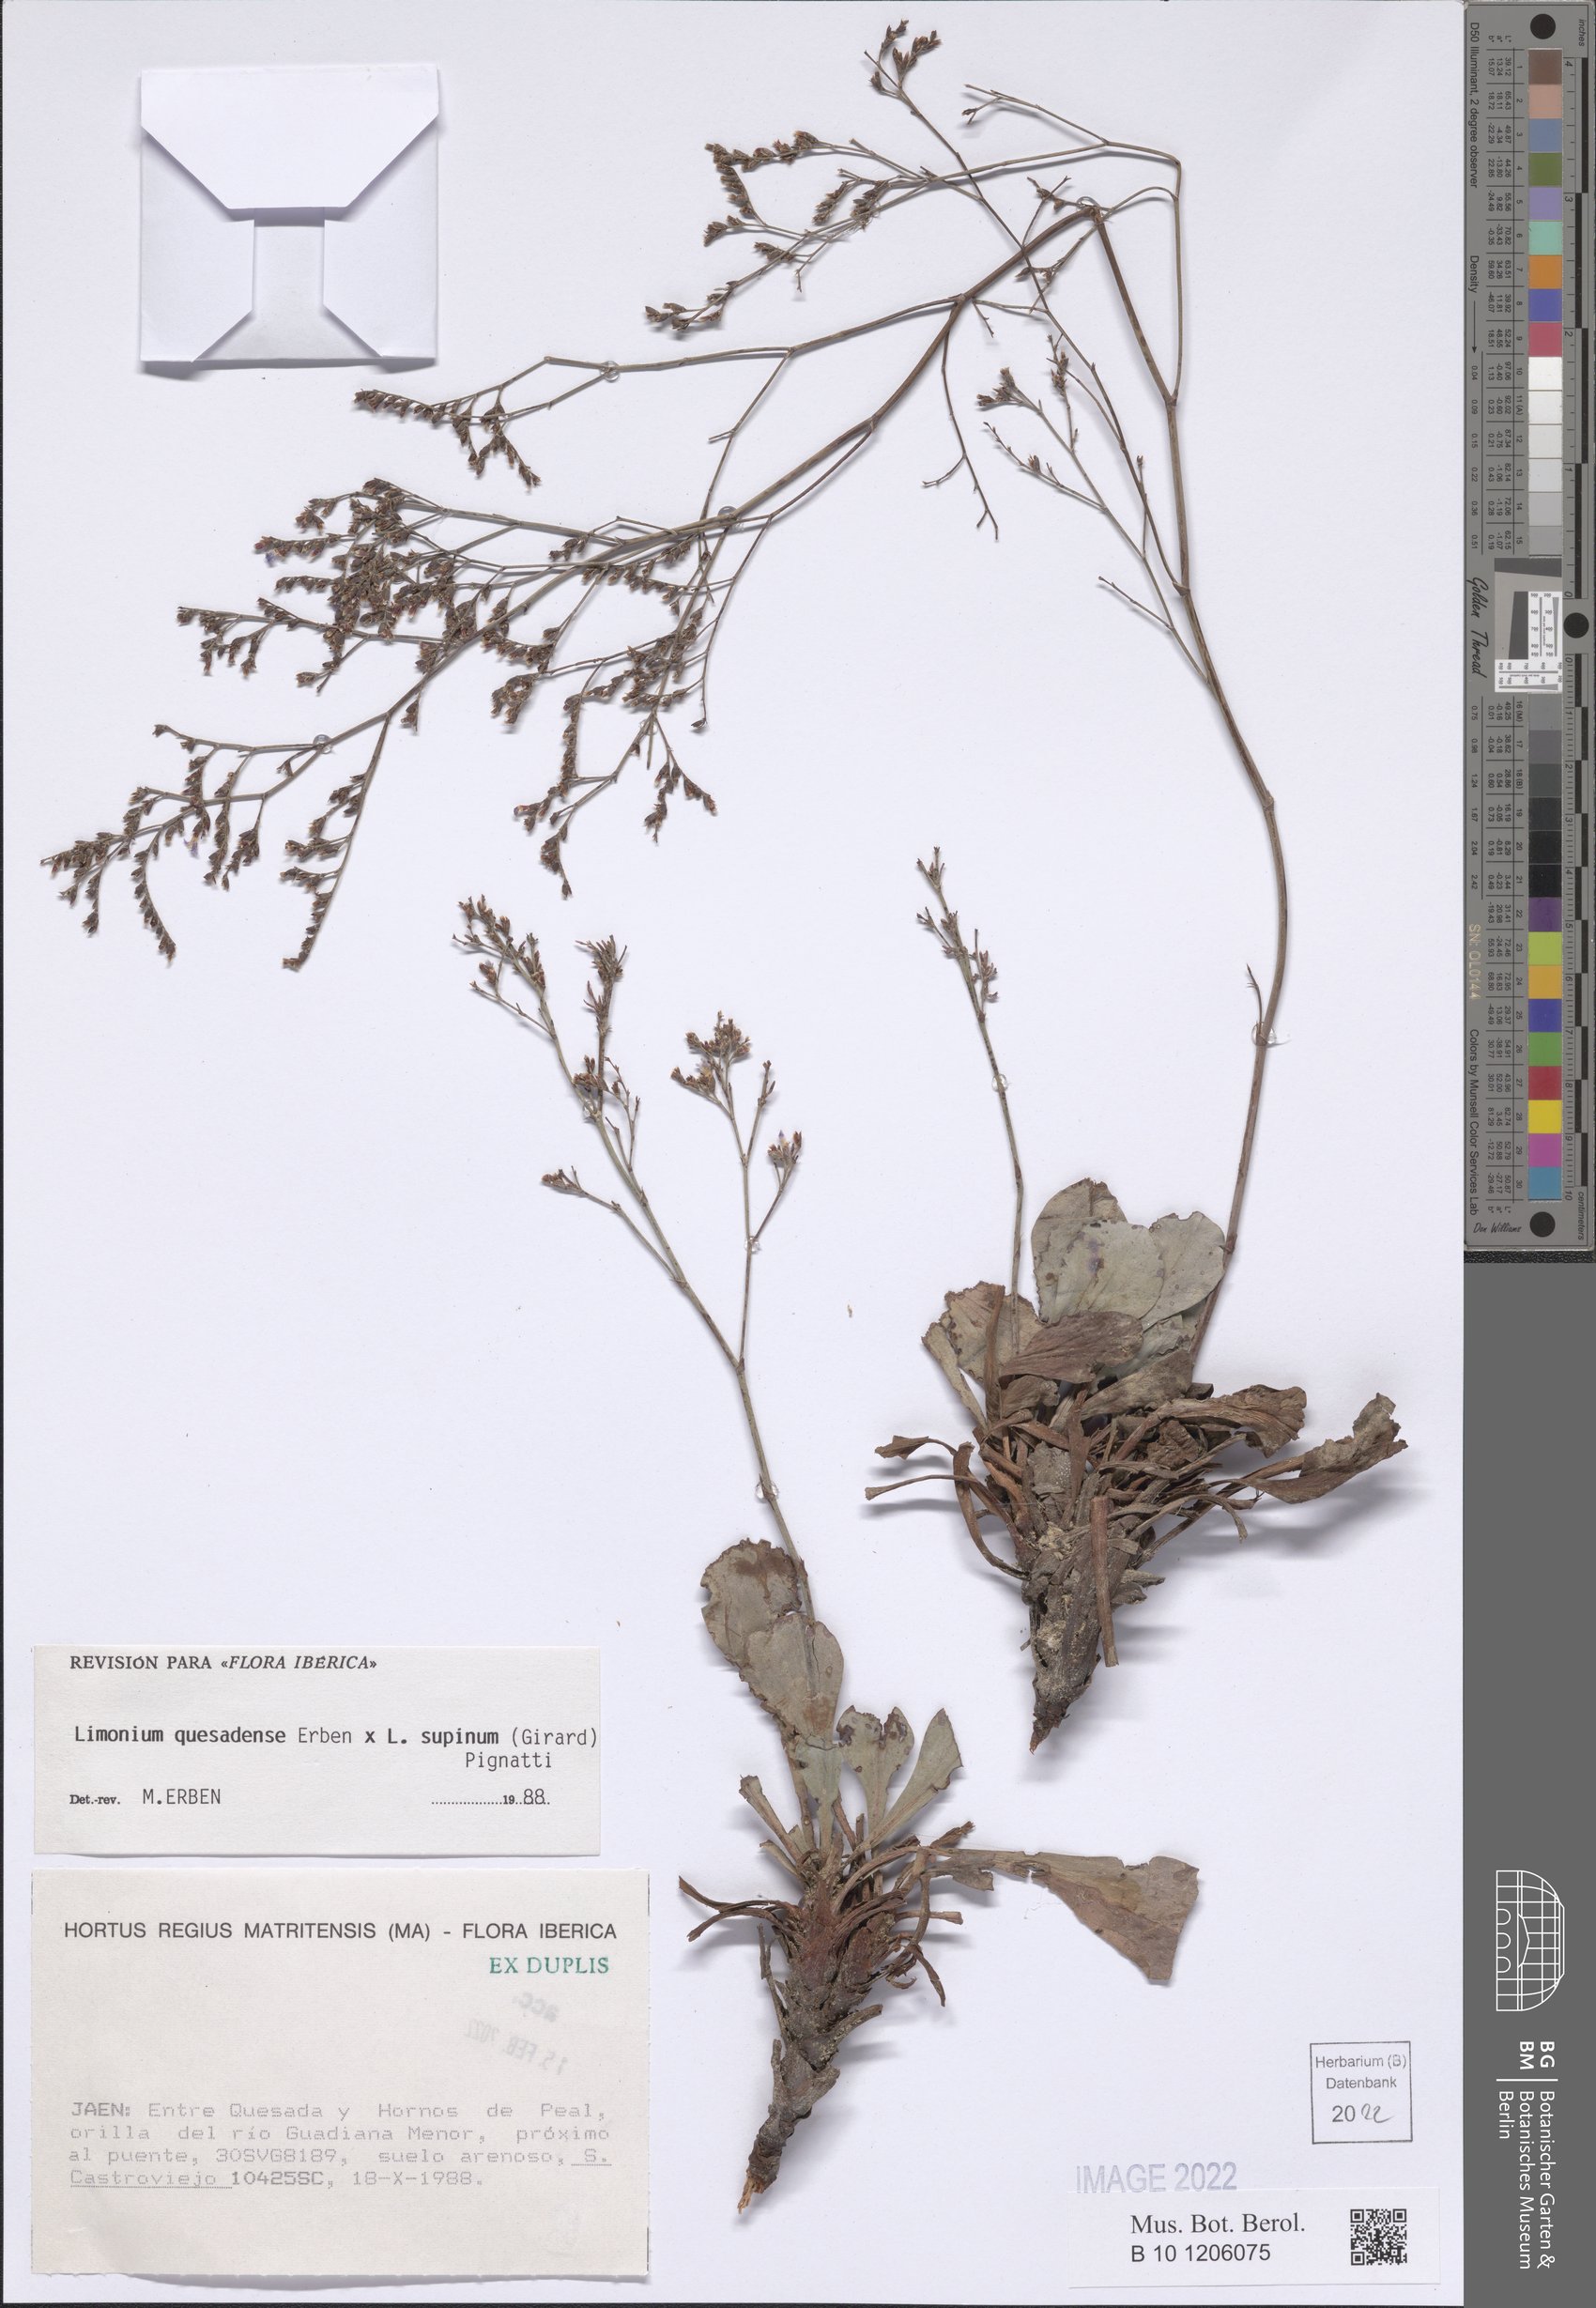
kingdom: Plantae
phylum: Tracheophyta
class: Magnoliopsida
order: Caryophyllales
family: Plumbaginaceae
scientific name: Plumbaginaceae
